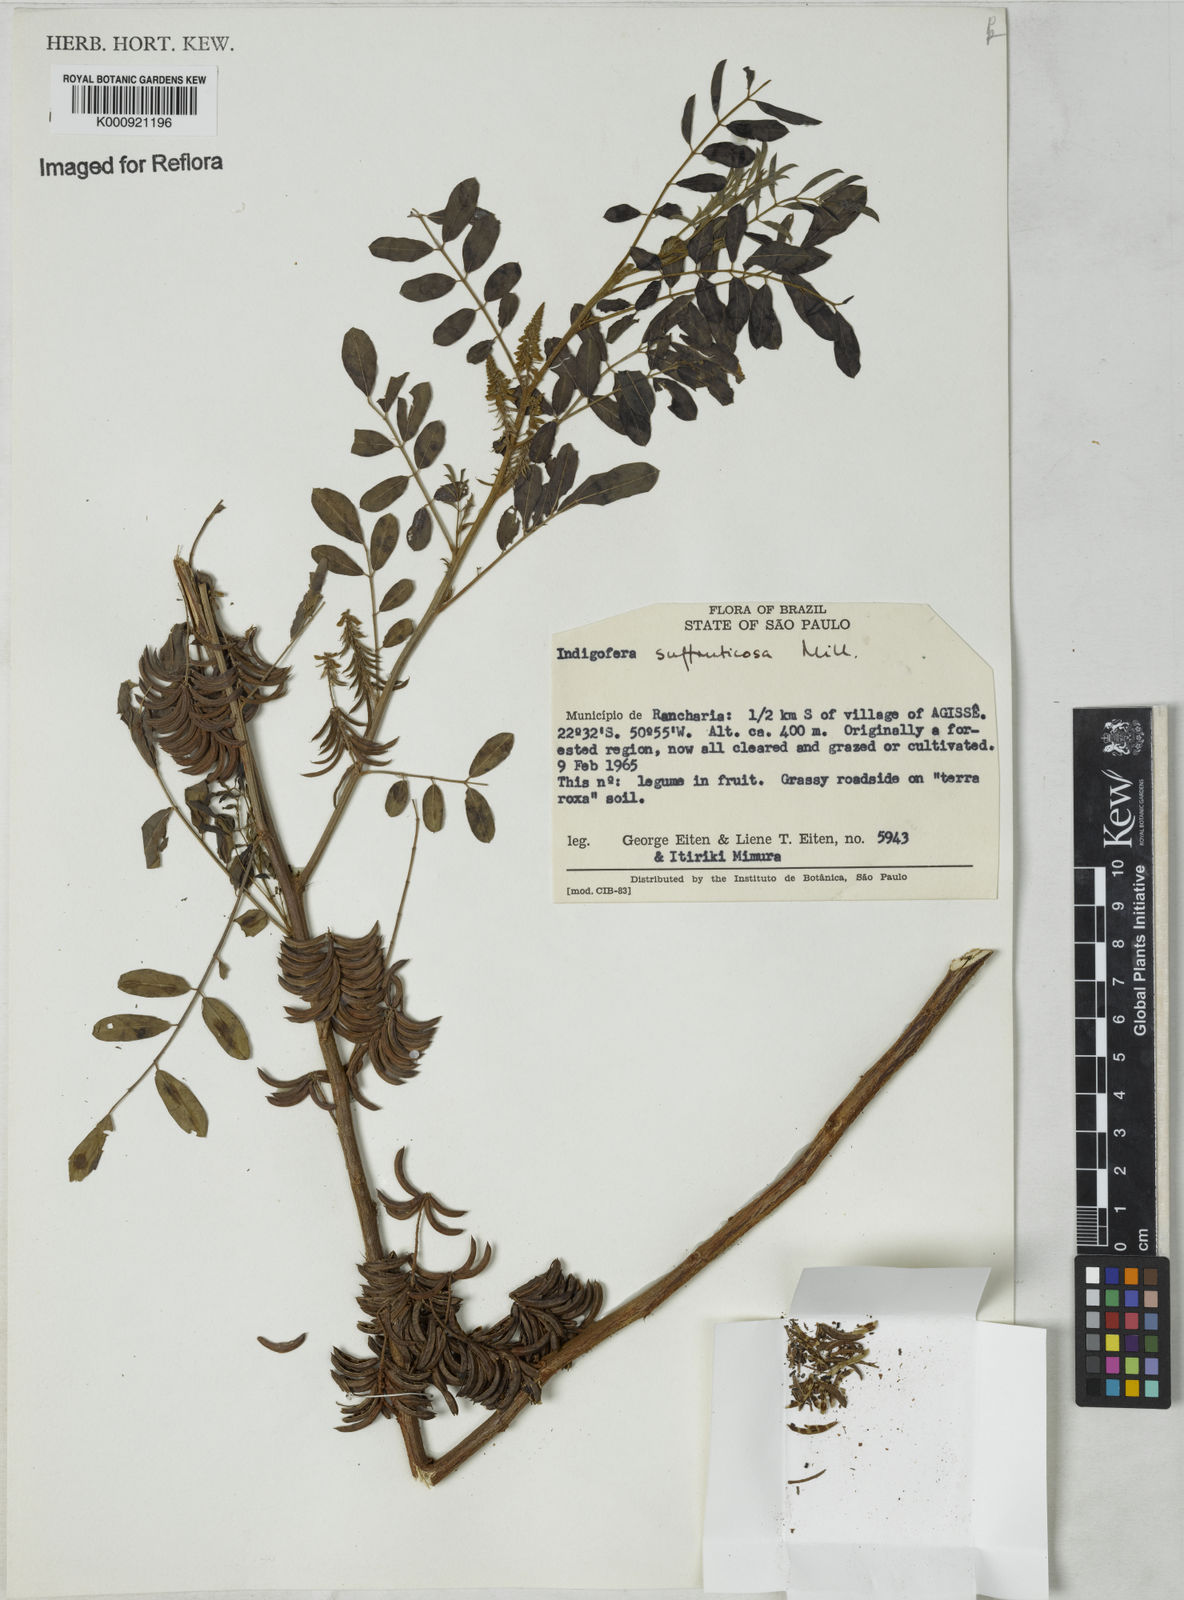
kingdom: Plantae
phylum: Tracheophyta
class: Magnoliopsida
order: Fabales
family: Fabaceae
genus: Indigofera
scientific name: Indigofera suffruticosa
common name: Anil de pasto
